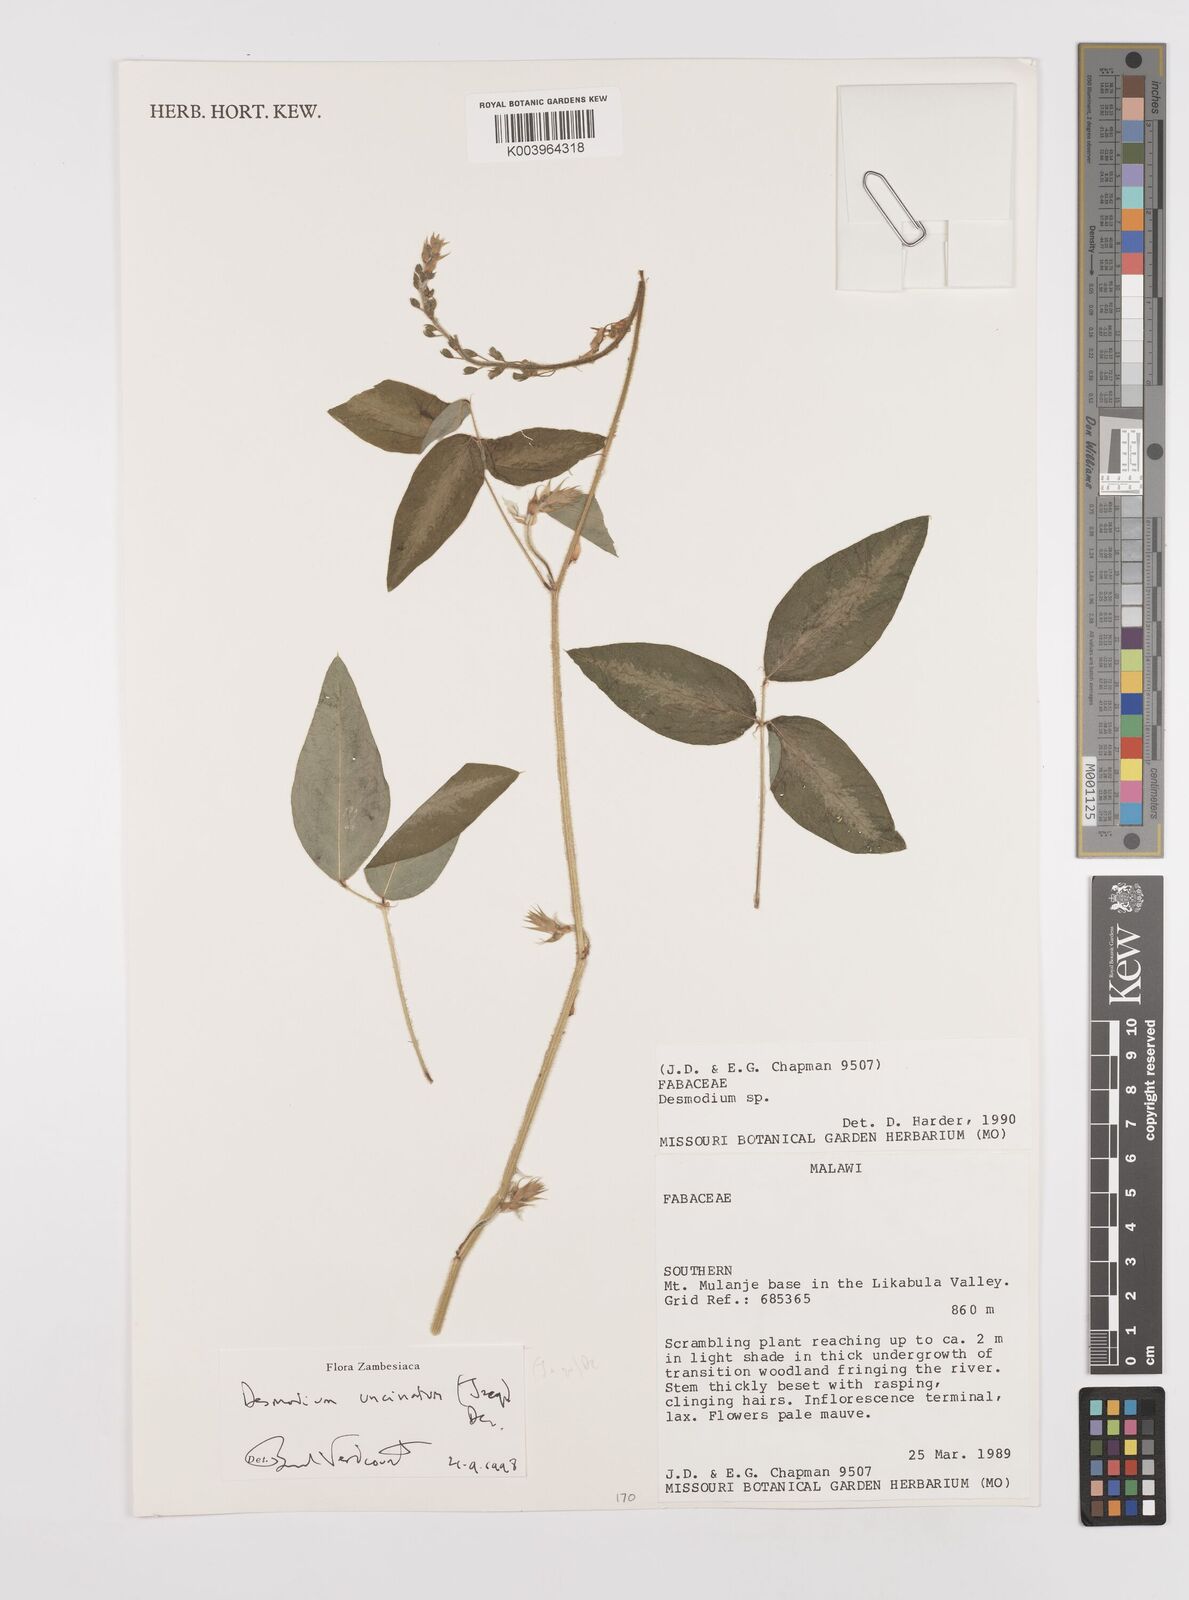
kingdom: Plantae
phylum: Tracheophyta
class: Magnoliopsida
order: Fabales
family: Fabaceae
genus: Desmodium
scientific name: Desmodium uncinatum
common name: Silverleaf desmodium
